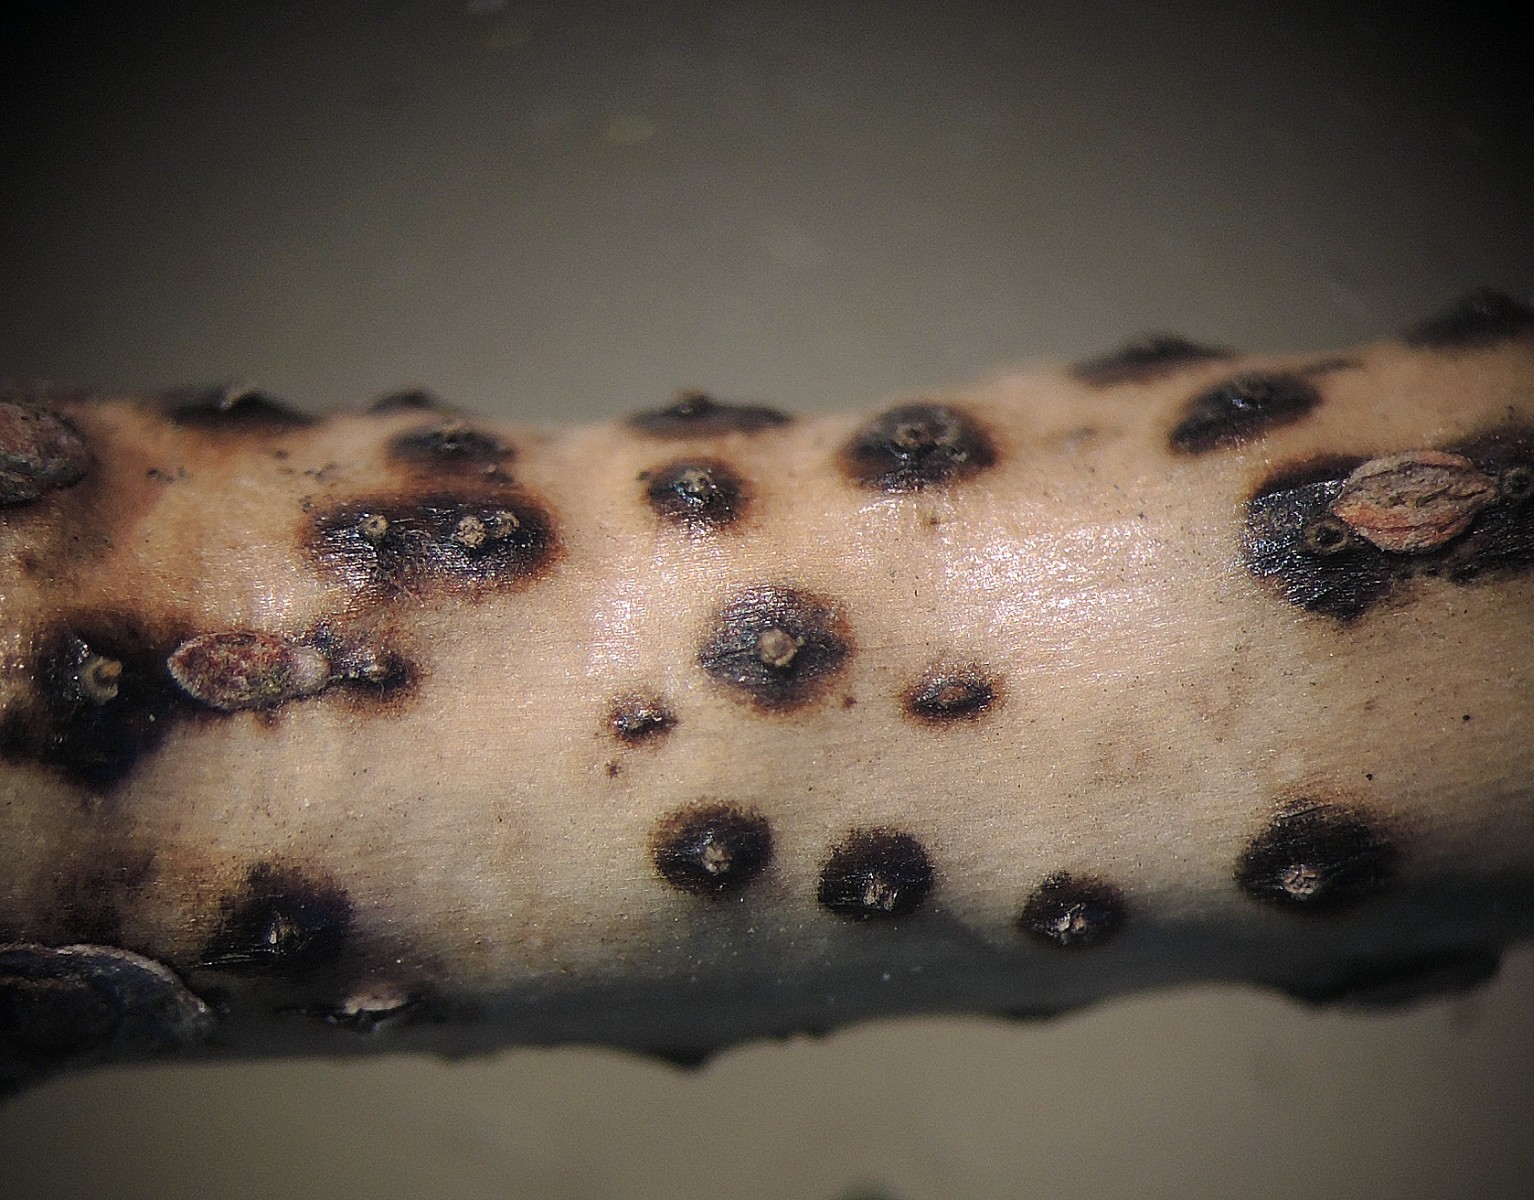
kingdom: Fungi
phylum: Ascomycota
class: Sordariomycetes
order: Diaporthales
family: Valsaceae
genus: Cytospora
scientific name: Cytospora corni
